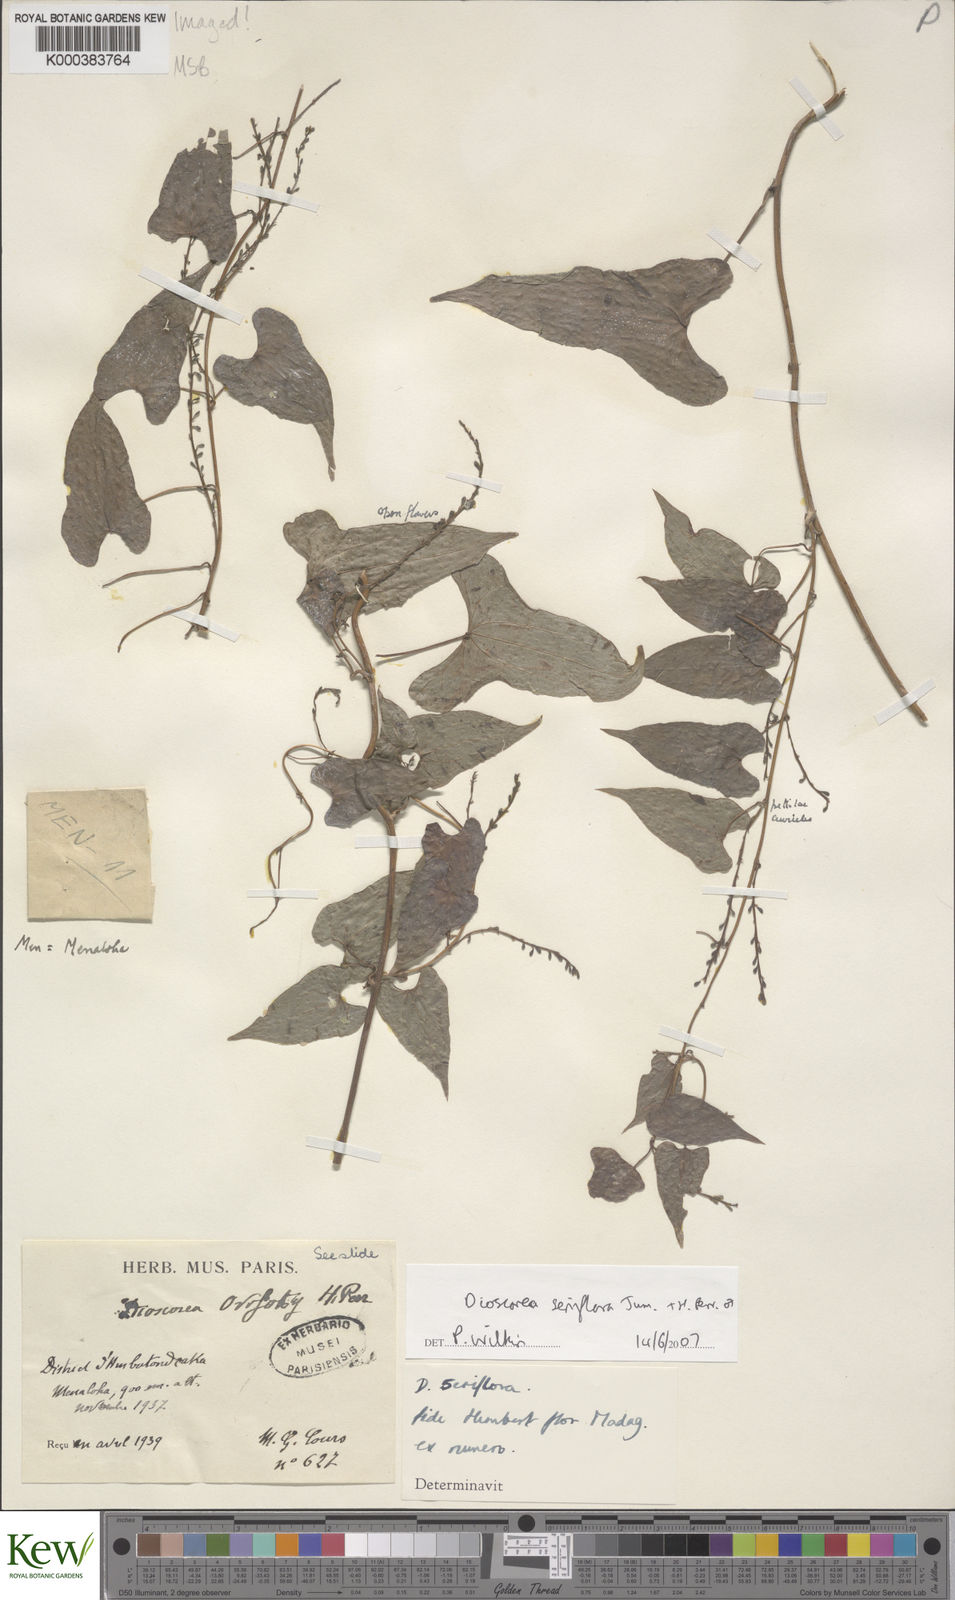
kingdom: Plantae
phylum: Tracheophyta
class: Liliopsida
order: Dioscoreales
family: Dioscoreaceae
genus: Dioscorea
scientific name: Dioscorea
